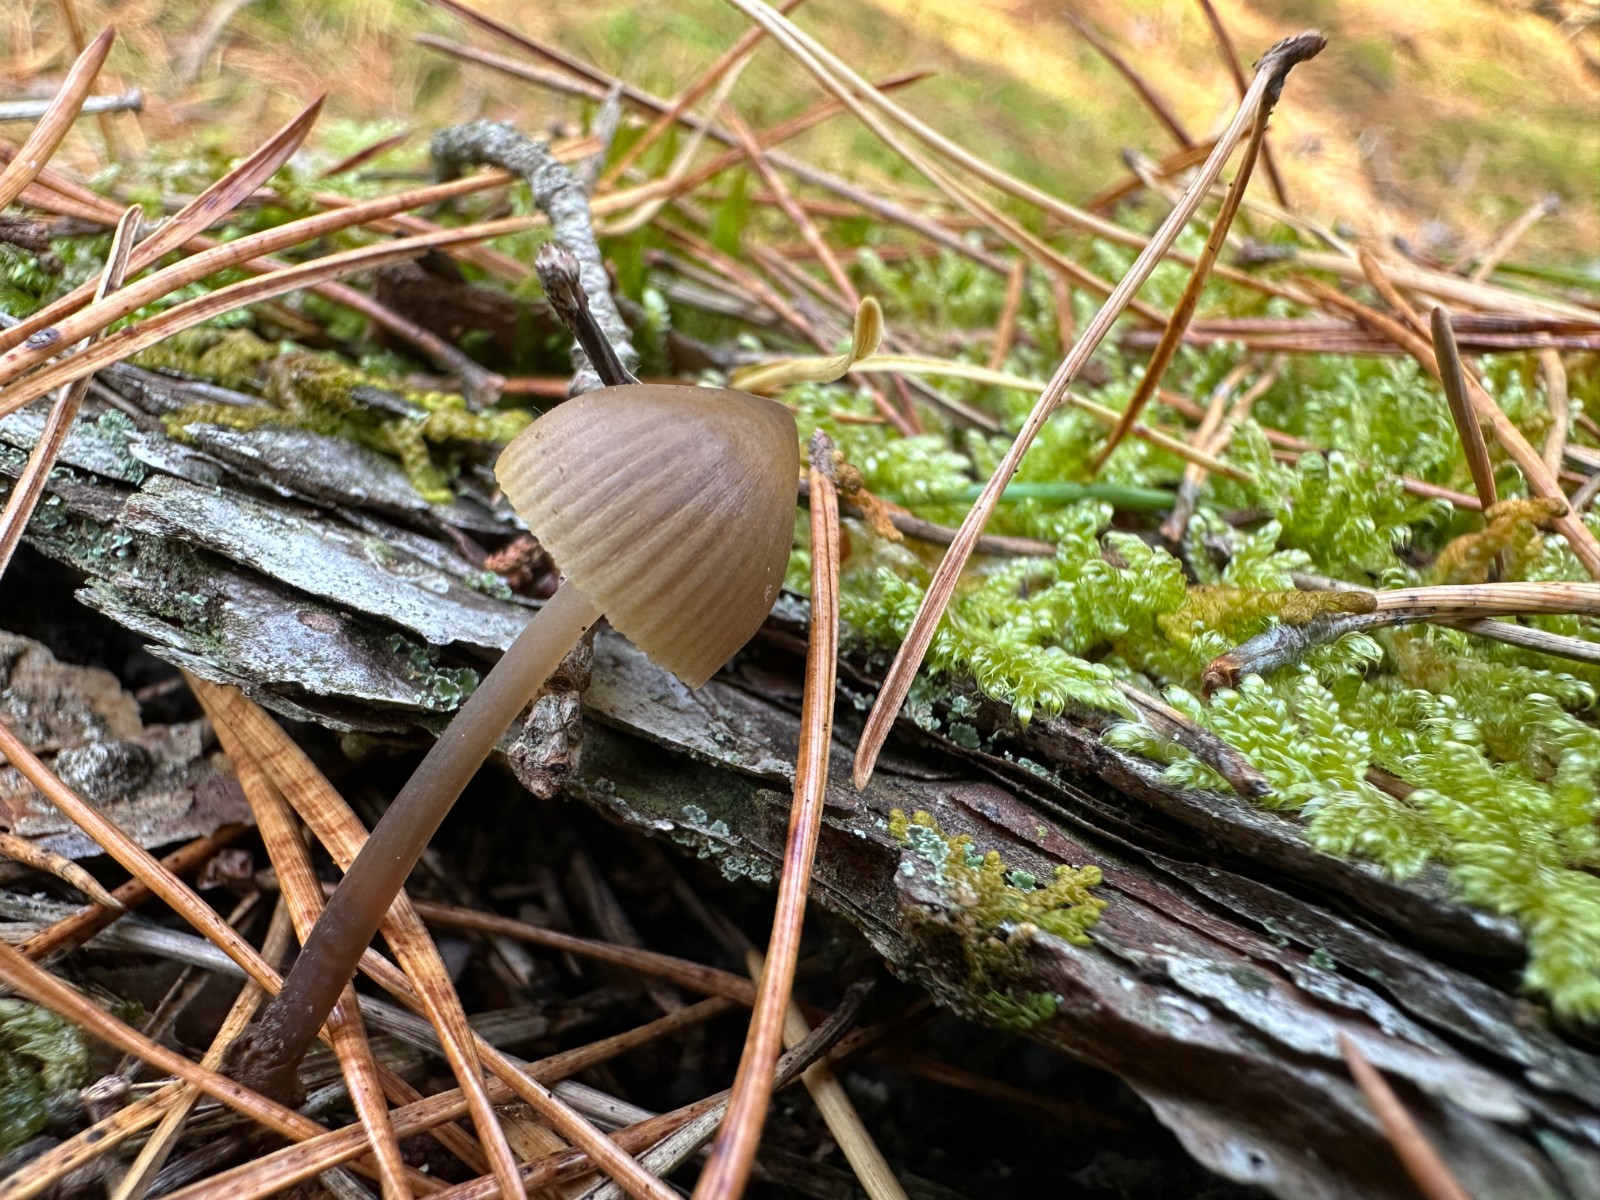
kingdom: Fungi
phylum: Basidiomycota
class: Agaricomycetes
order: Agaricales
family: Mycenaceae
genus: Mycena
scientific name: Mycena stipata
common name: stinkende huesvamp
